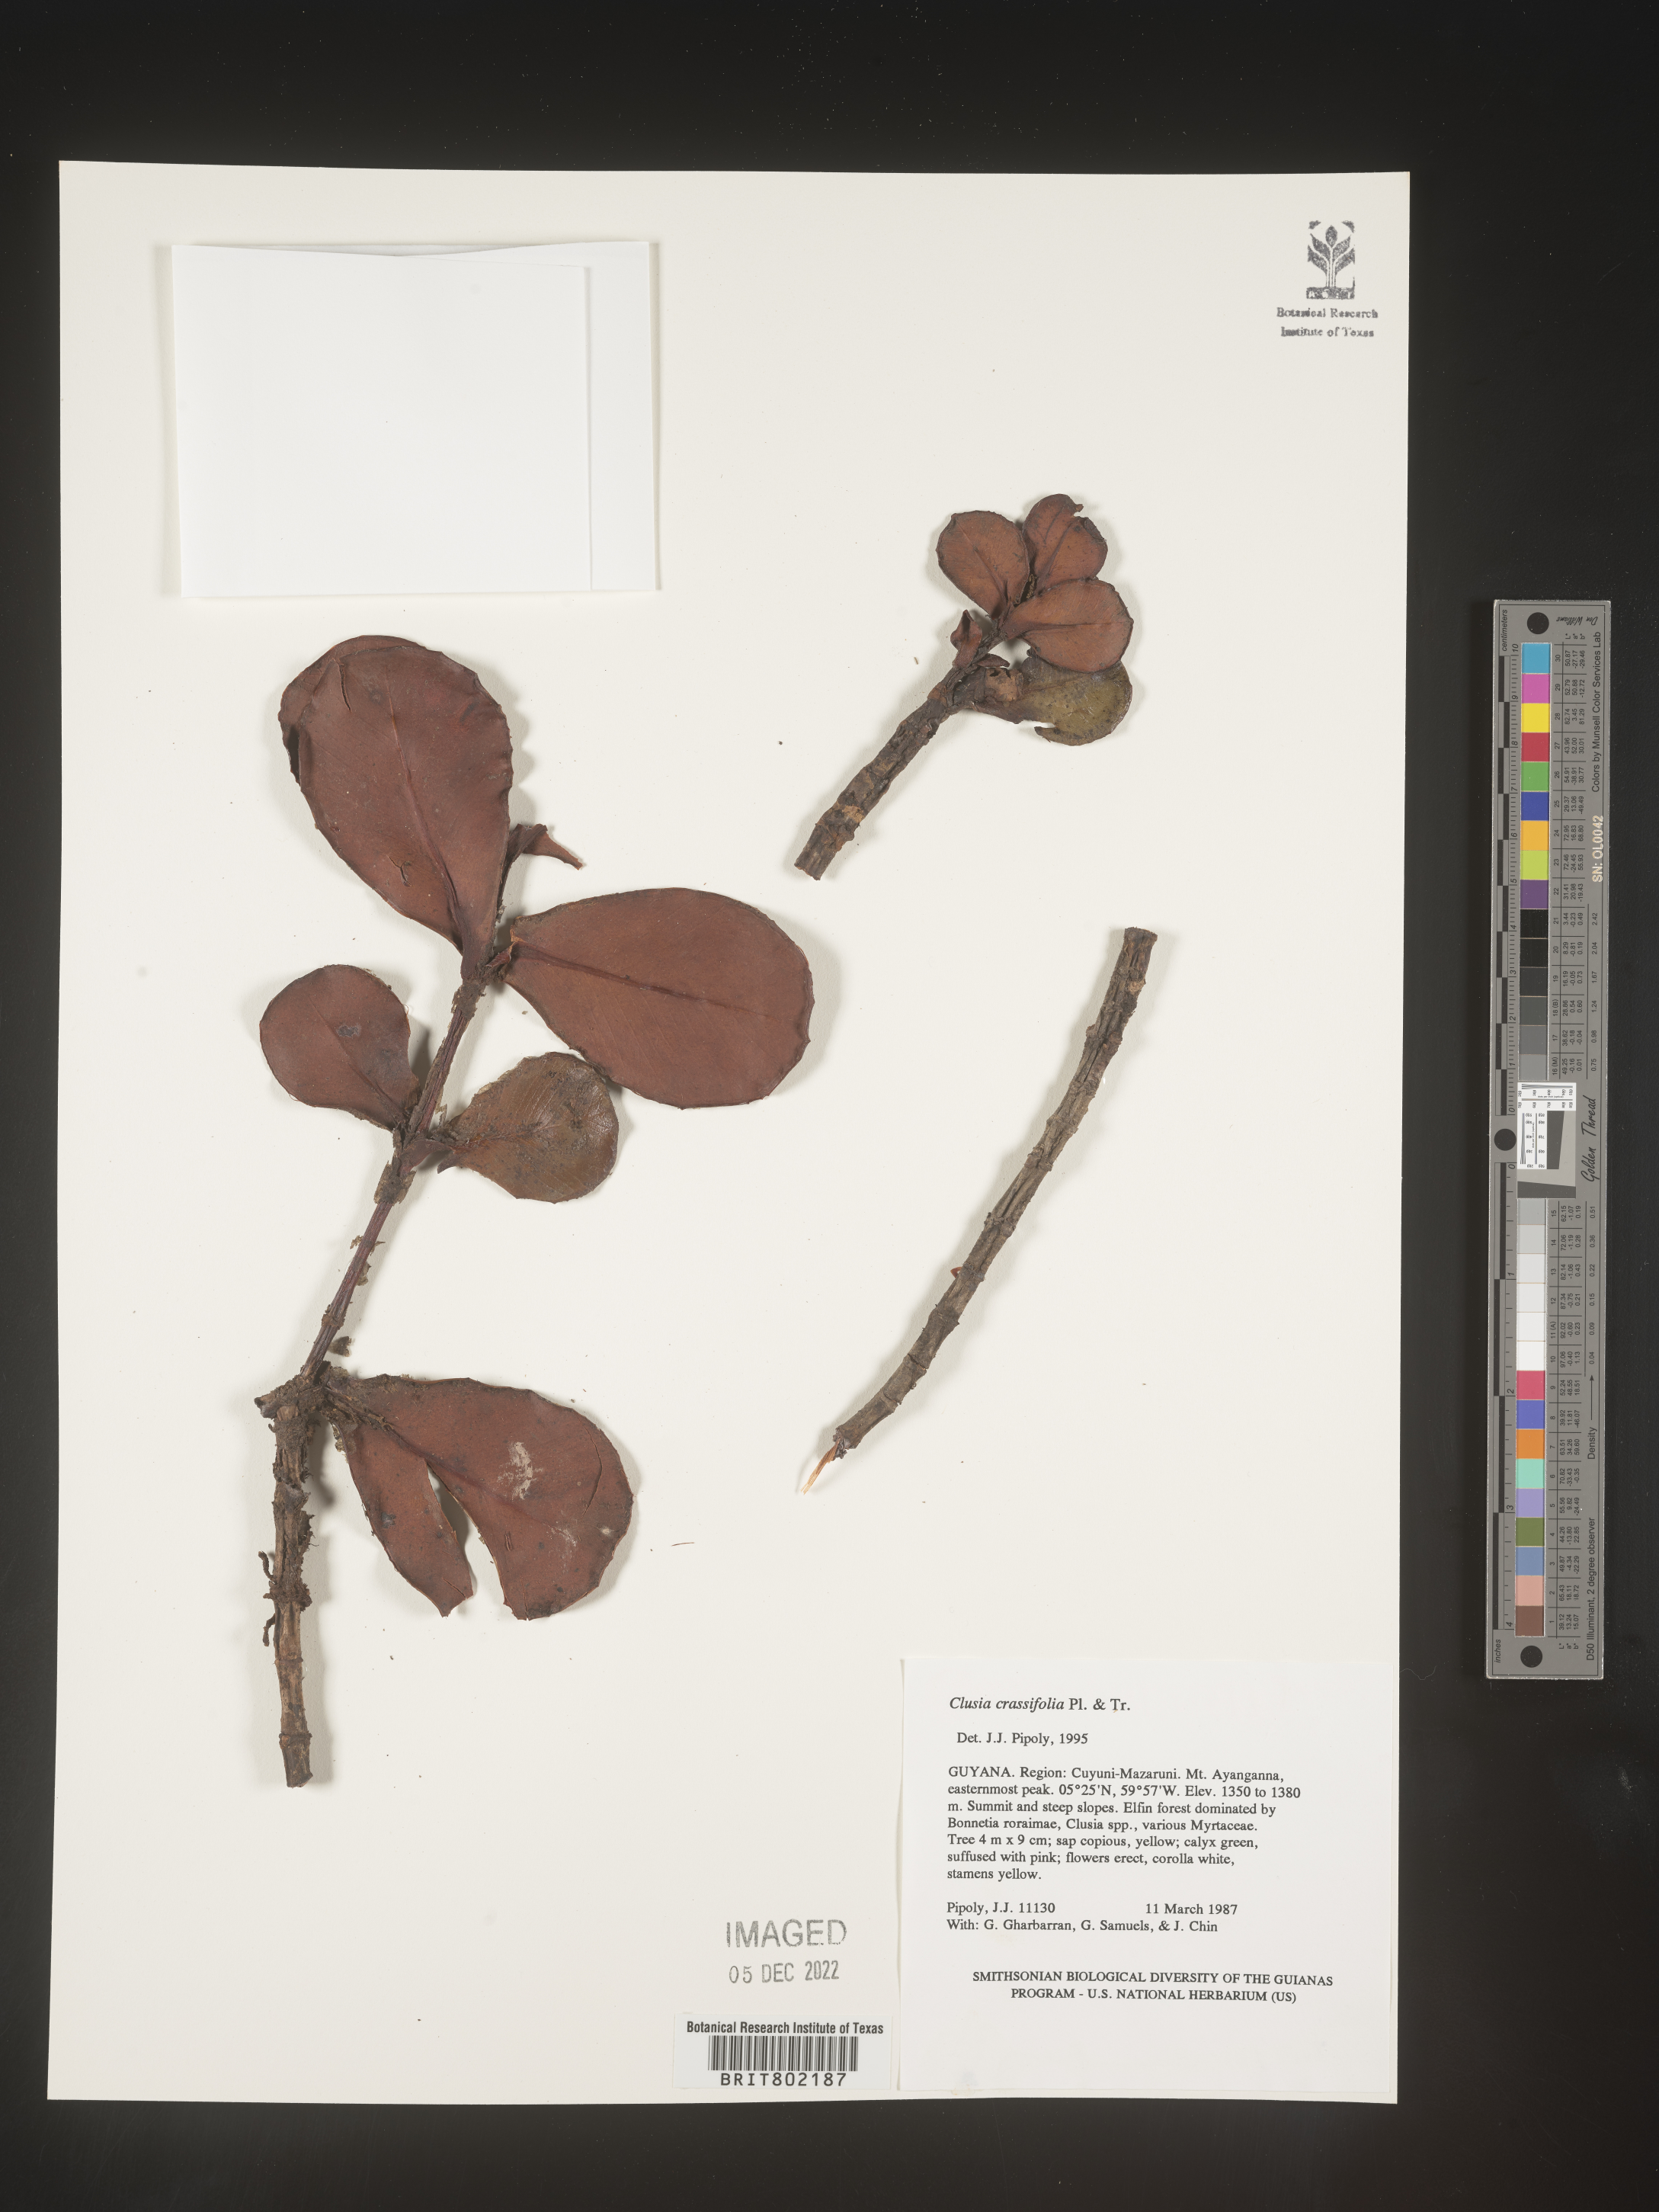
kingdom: Plantae
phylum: Tracheophyta
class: Magnoliopsida
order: Malpighiales
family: Clusiaceae
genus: Clusia
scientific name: Clusia crassifolia
